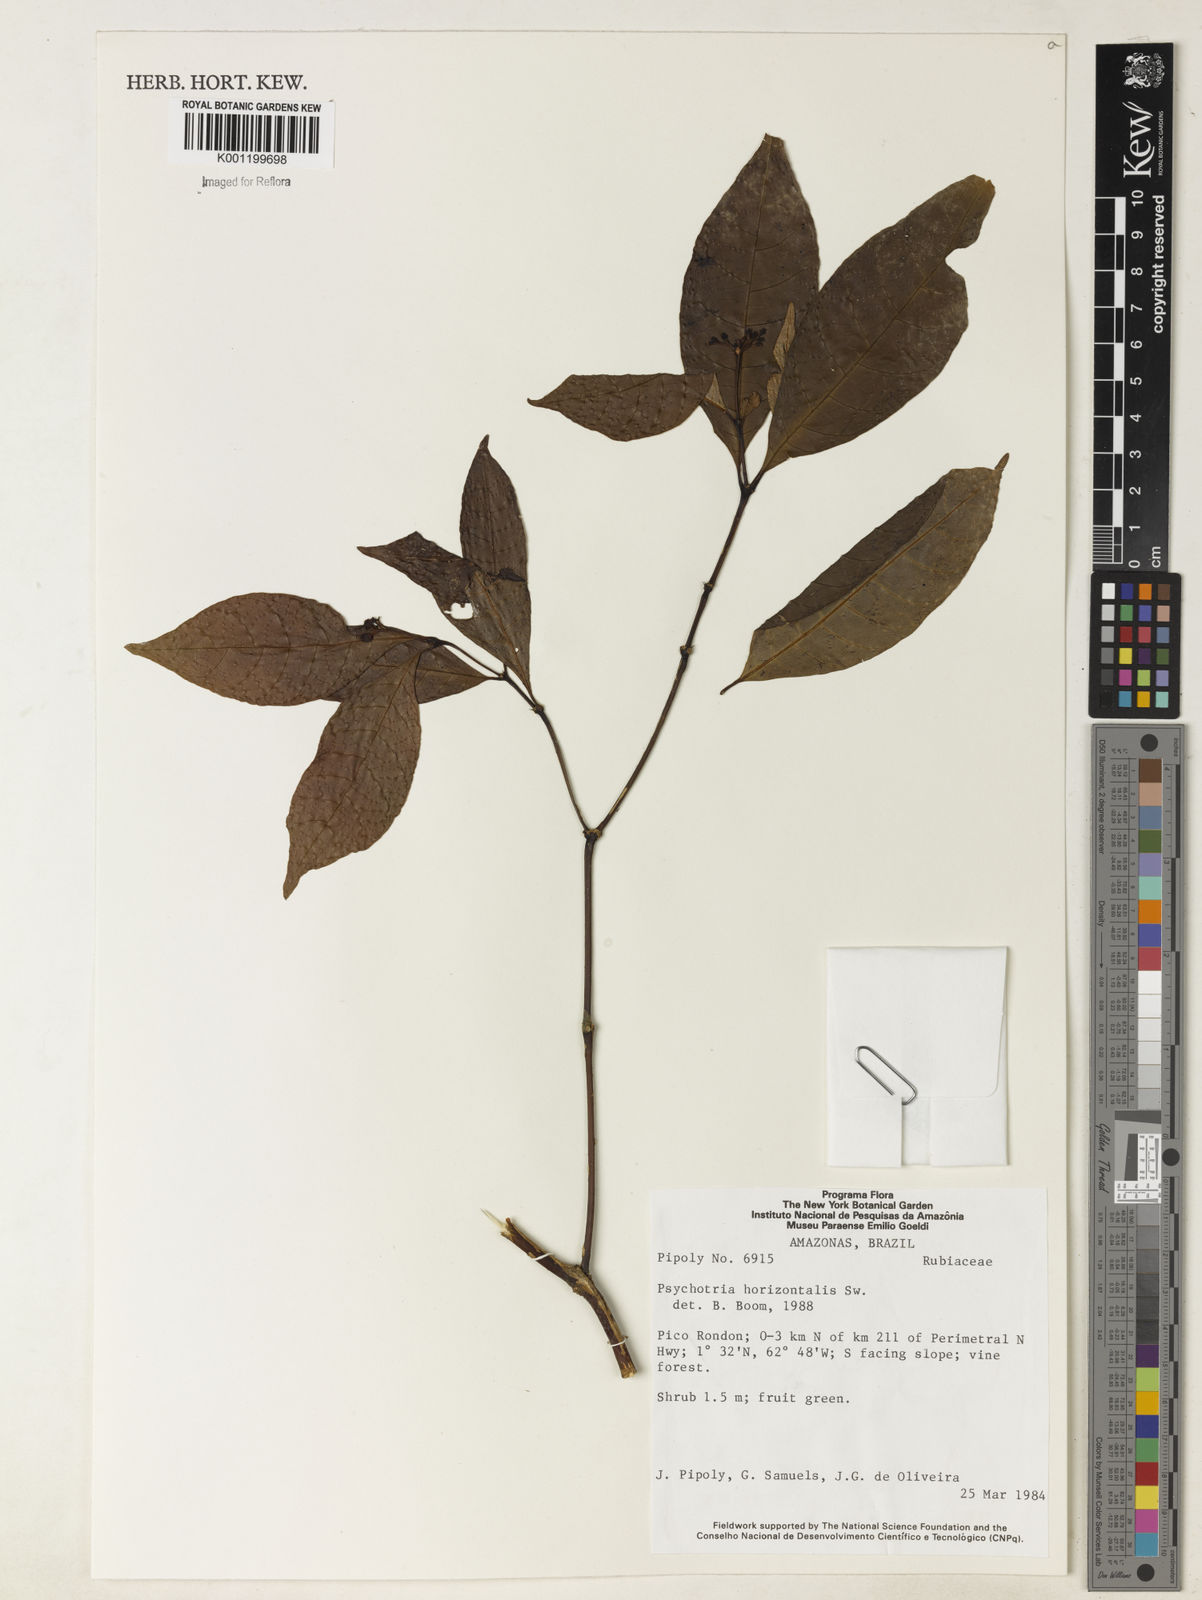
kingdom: Plantae
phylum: Tracheophyta
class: Magnoliopsida
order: Gentianales
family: Rubiaceae
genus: Psychotria
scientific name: Psychotria horizontalis
